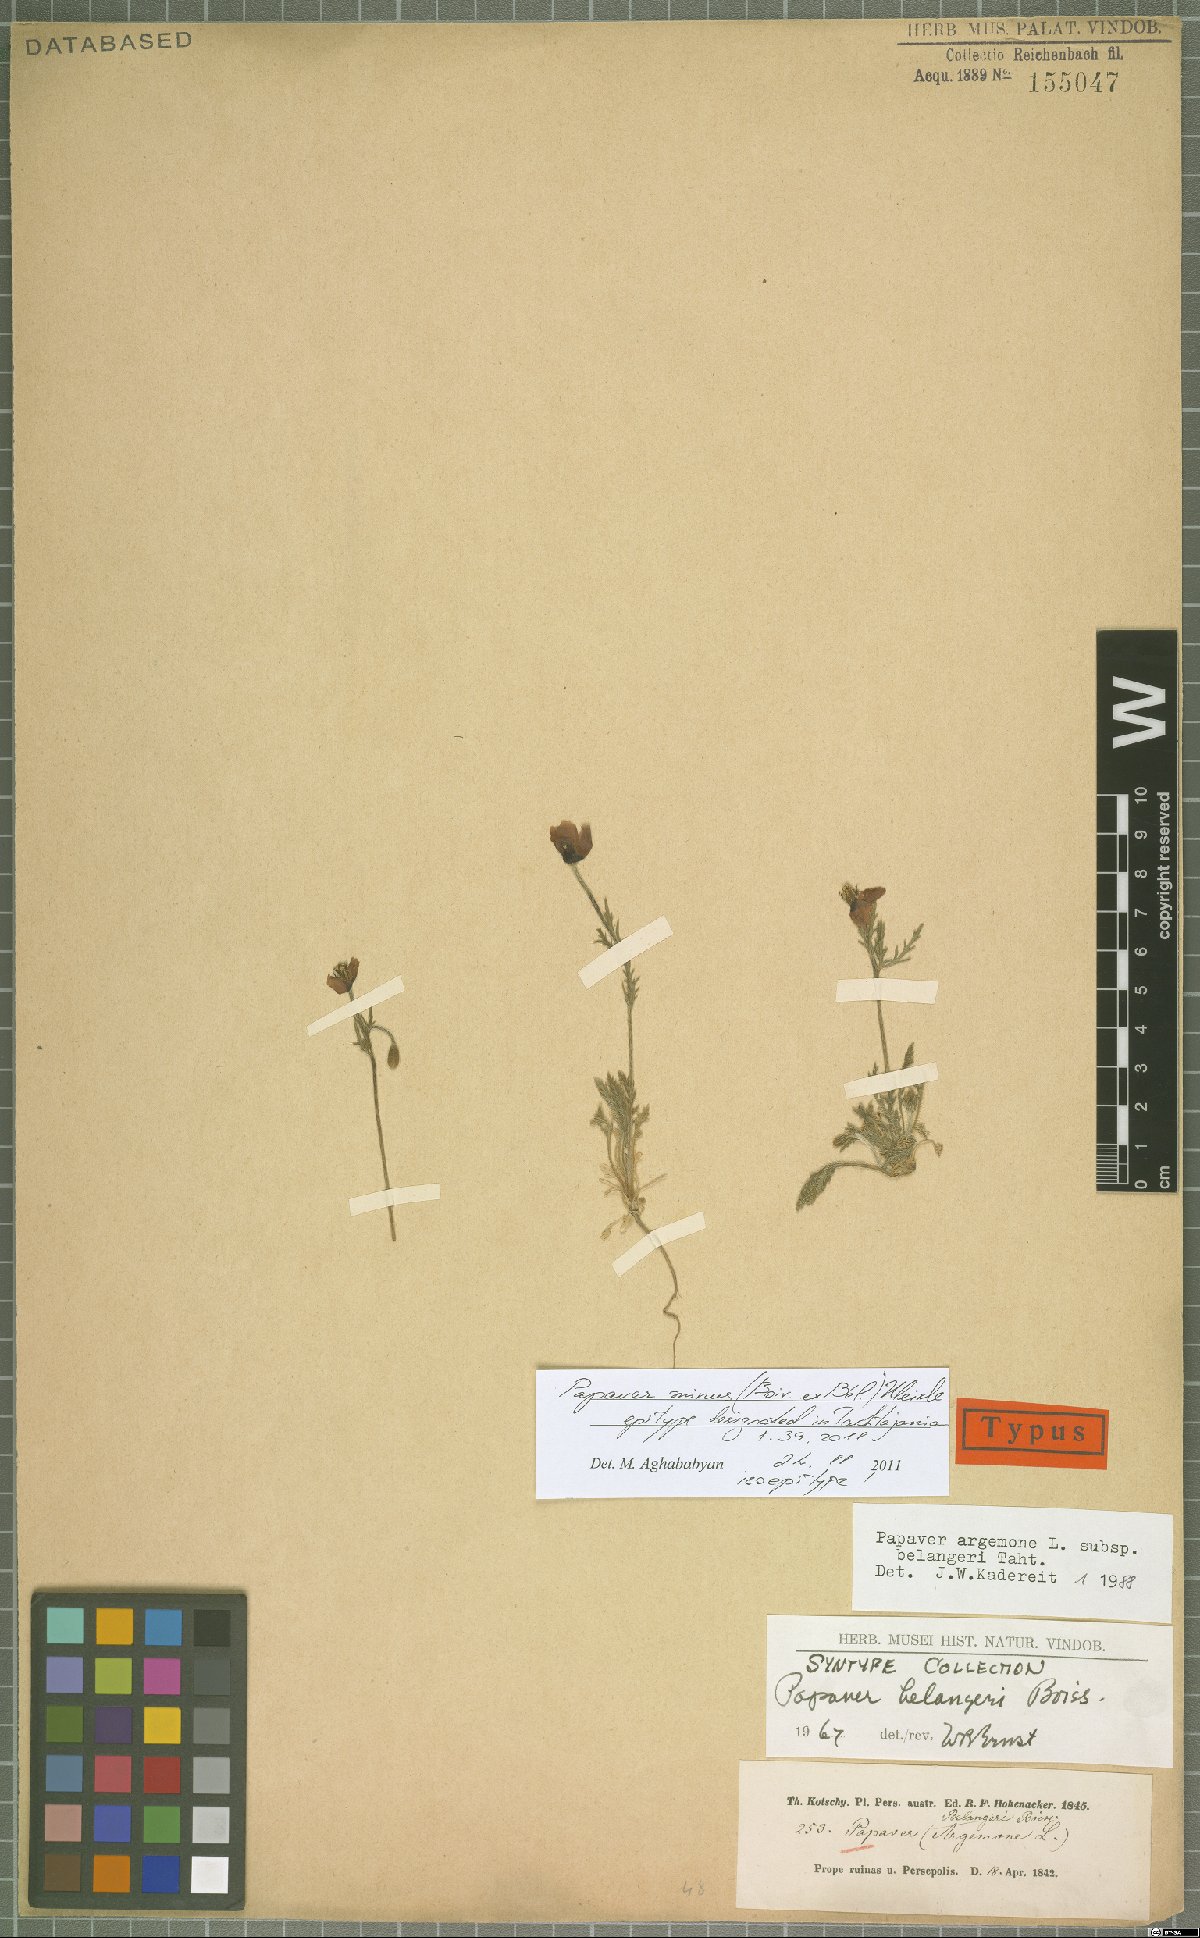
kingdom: Plantae
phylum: Tracheophyta
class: Magnoliopsida
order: Ranunculales
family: Papaveraceae
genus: Roemeria
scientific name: Roemeria minor
